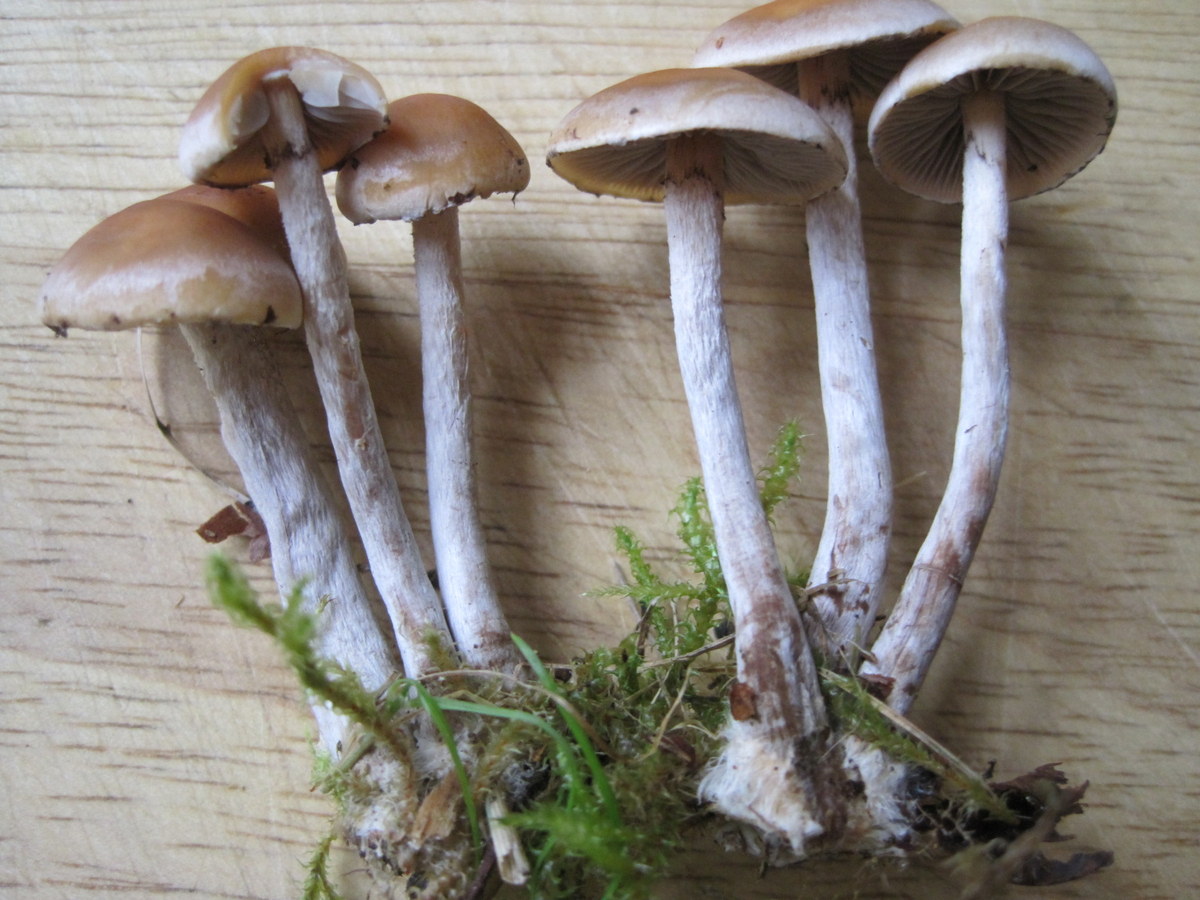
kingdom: Fungi
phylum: Basidiomycota
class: Agaricomycetes
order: Agaricales
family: Strophariaceae
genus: Hypholoma
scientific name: Hypholoma marginatum
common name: enlig svovlhat
